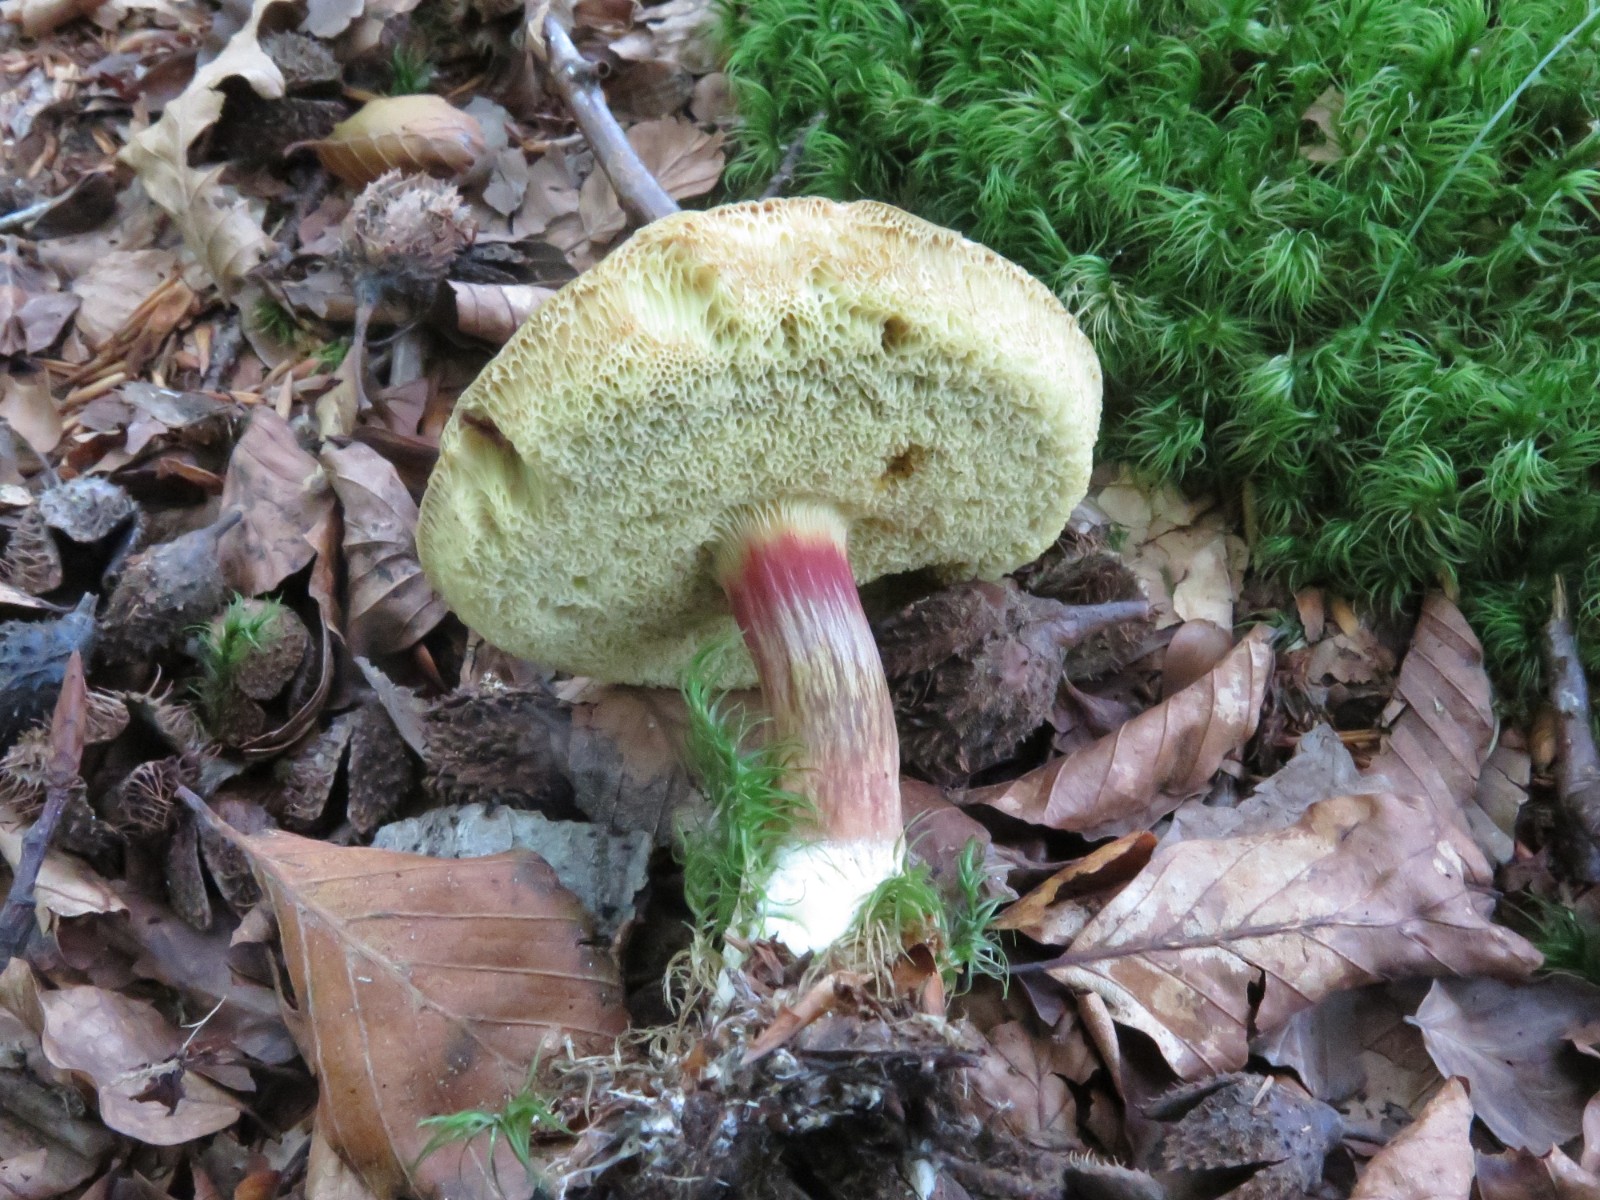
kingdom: Fungi
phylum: Basidiomycota
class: Agaricomycetes
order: Boletales
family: Boletaceae
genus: Xerocomellus
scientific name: Xerocomellus chrysenteron
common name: rødsprukken rørhat
